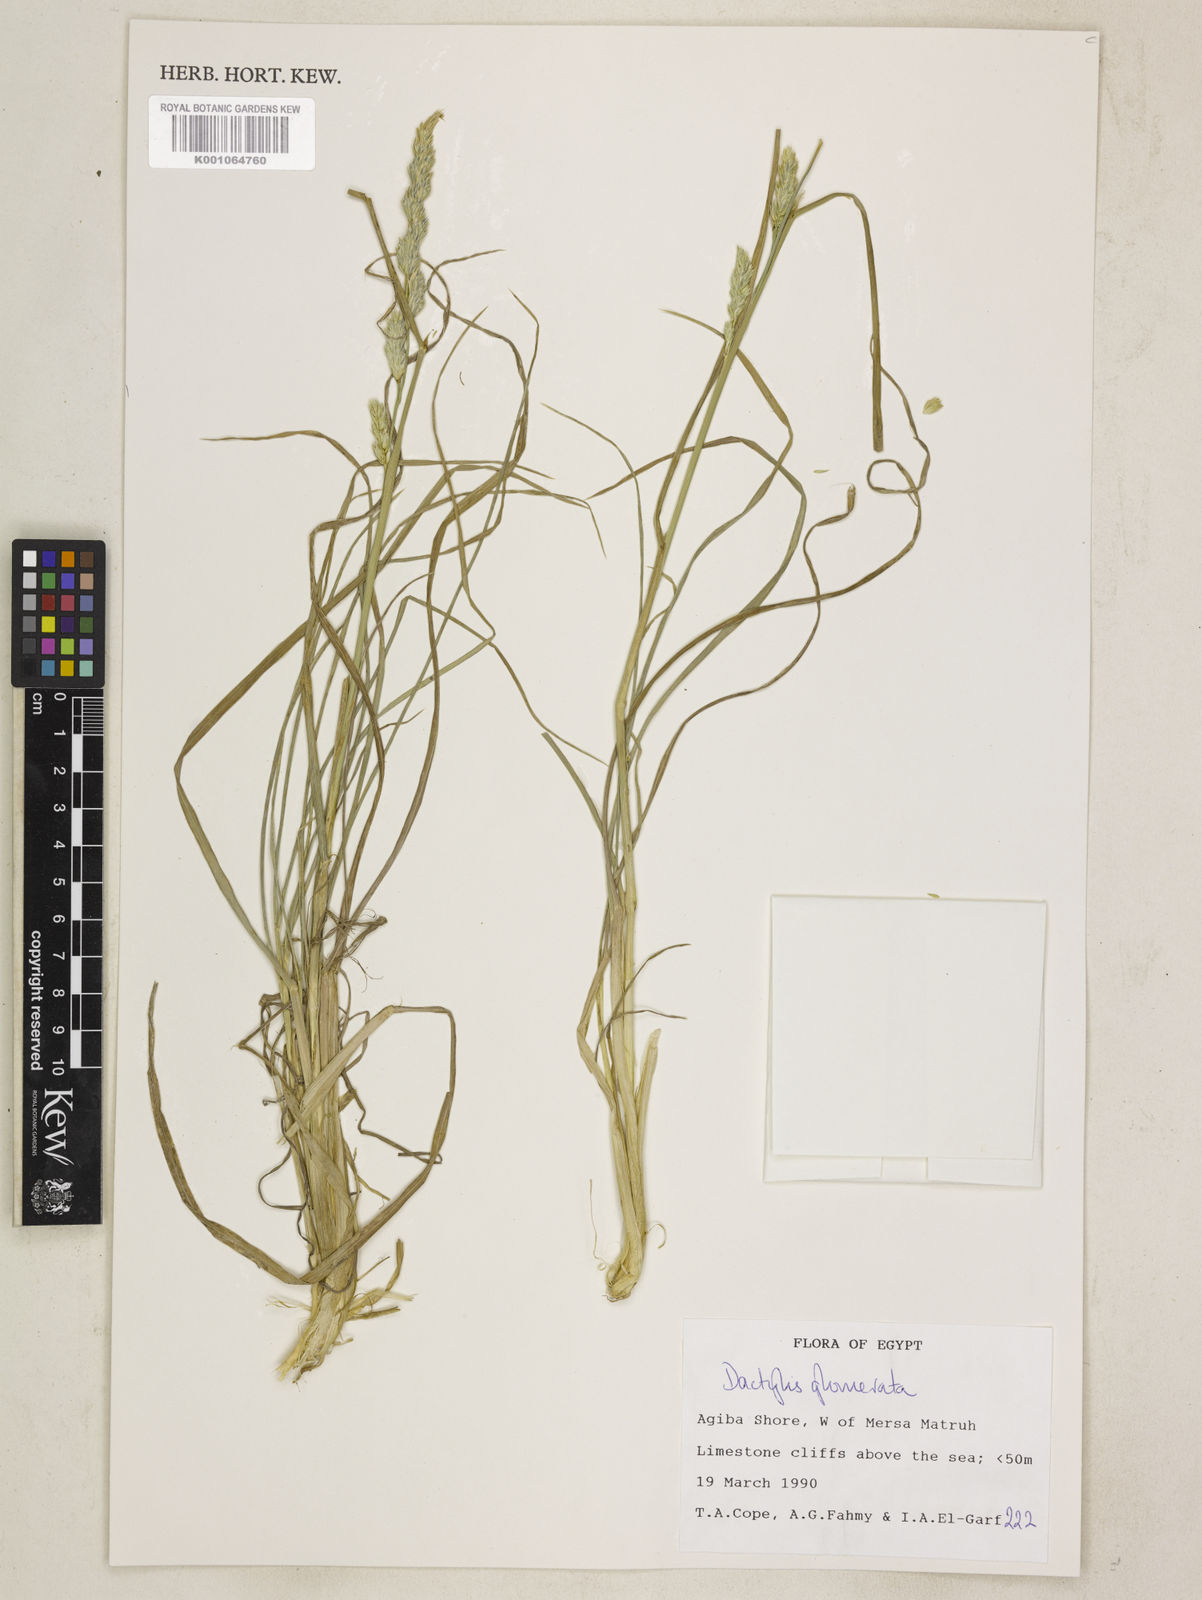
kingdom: Plantae
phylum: Tracheophyta
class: Liliopsida
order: Poales
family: Poaceae
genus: Dactylis
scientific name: Dactylis glomerata
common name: Orchardgrass
